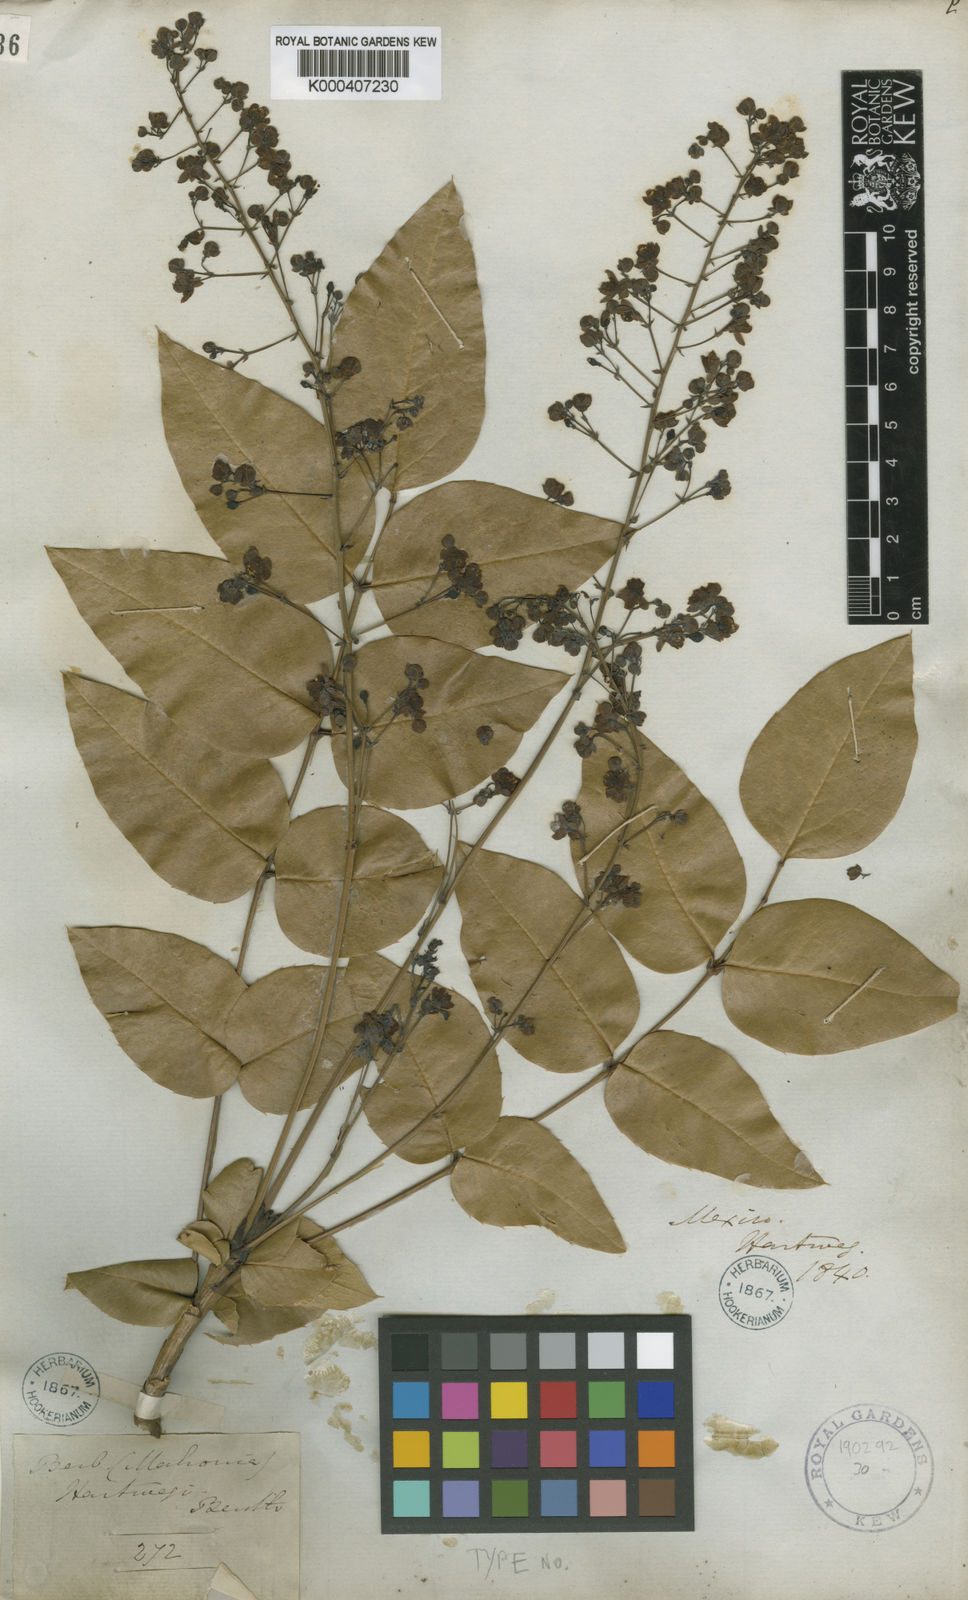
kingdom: Plantae
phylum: Tracheophyta
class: Magnoliopsida
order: Ranunculales
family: Berberidaceae
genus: Mahonia
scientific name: Mahonia hartwegii
